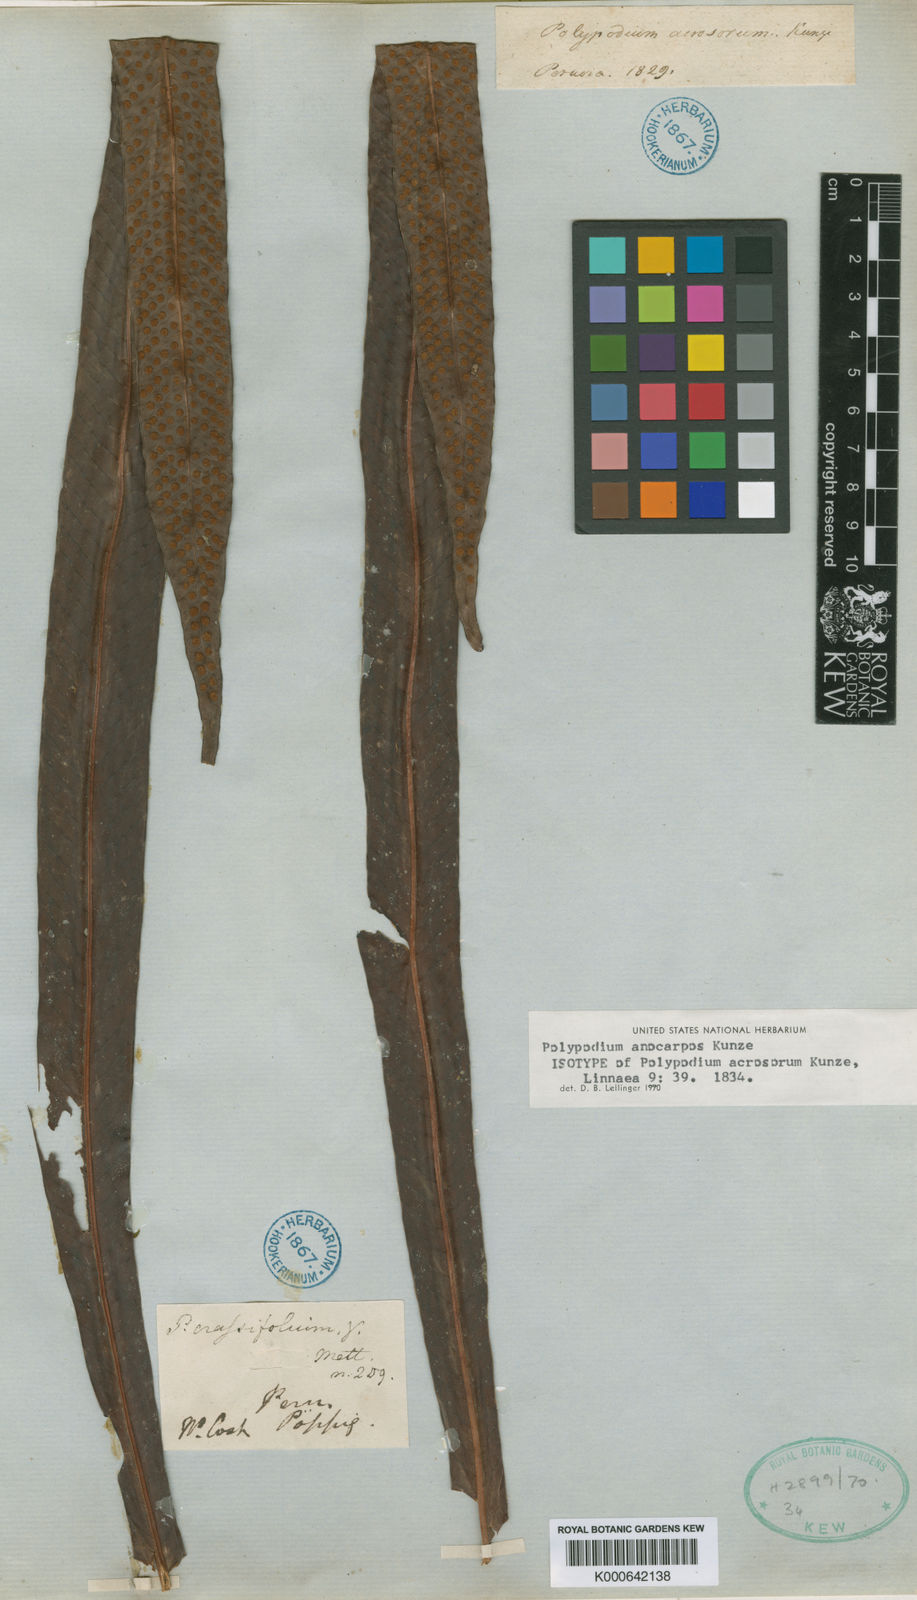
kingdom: Plantae
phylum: Tracheophyta
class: Polypodiopsida
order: Polypodiales
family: Polypodiaceae
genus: Niphidium
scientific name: Niphidium crassifolium
